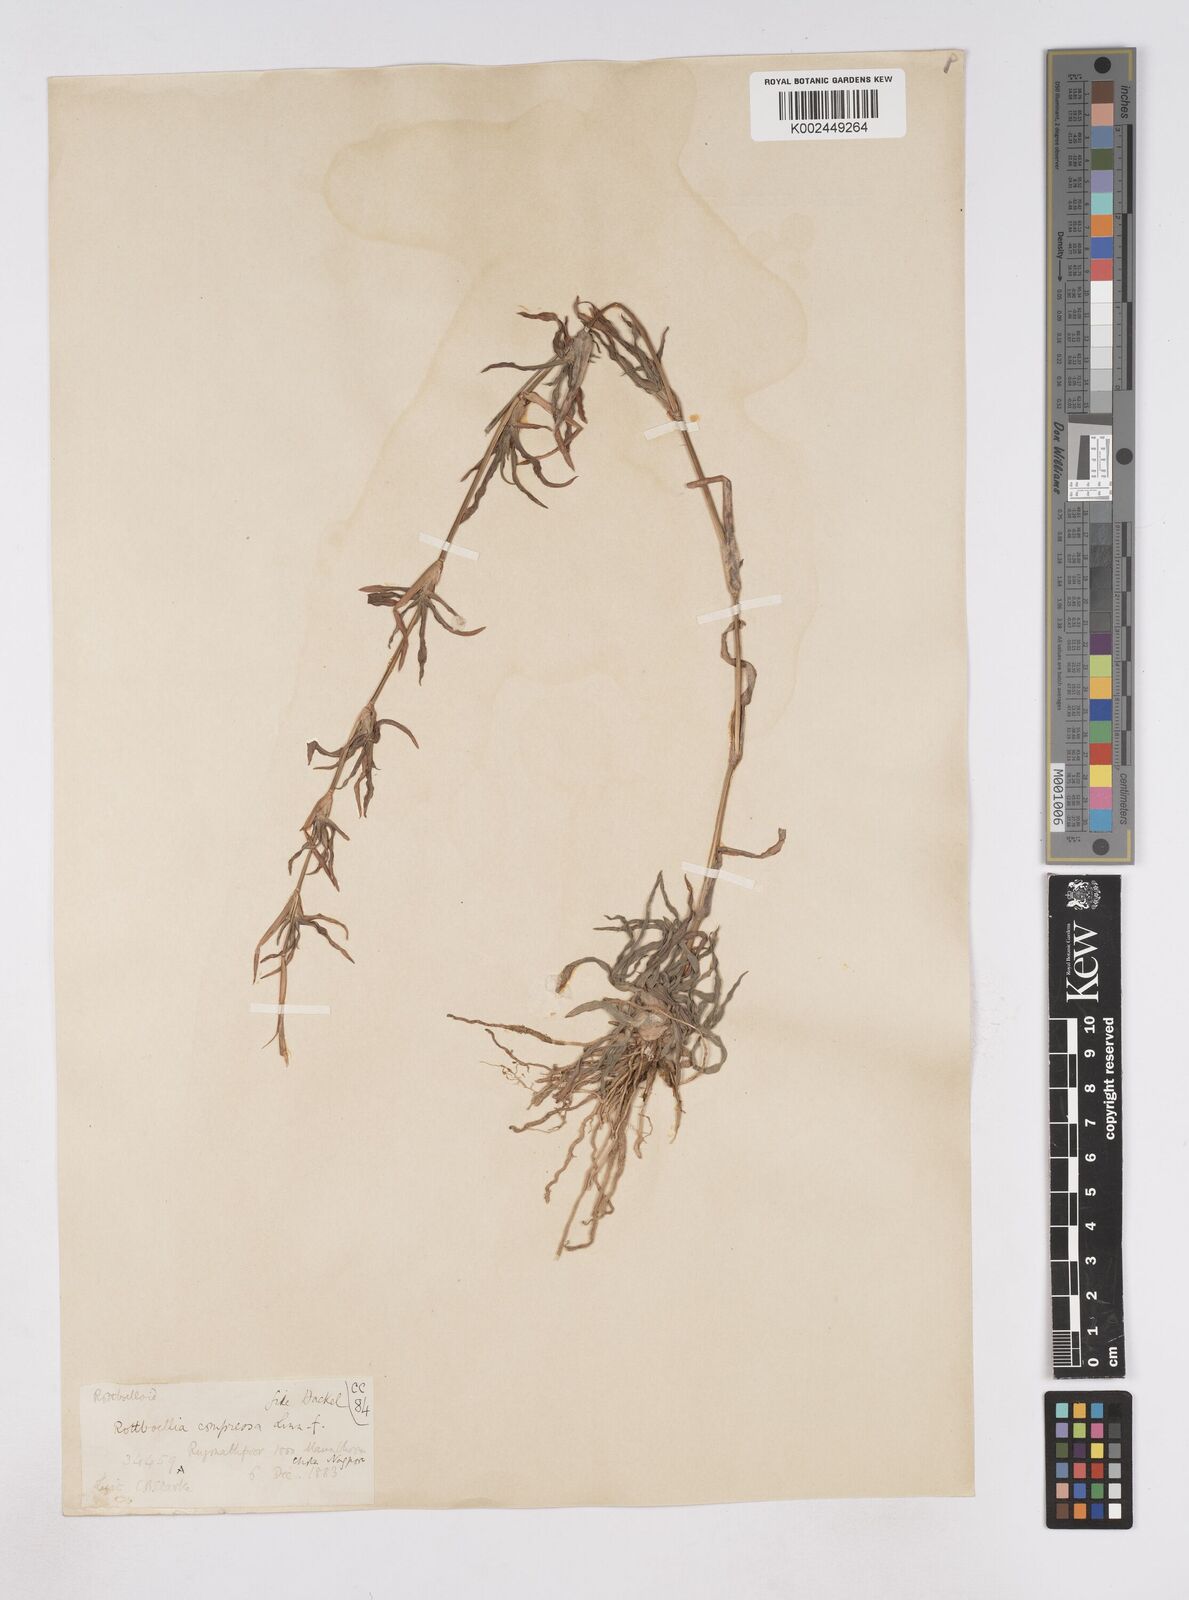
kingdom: Plantae
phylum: Tracheophyta
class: Liliopsida
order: Poales
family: Poaceae
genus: Hemarthria
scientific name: Hemarthria compressa
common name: Whip grass
